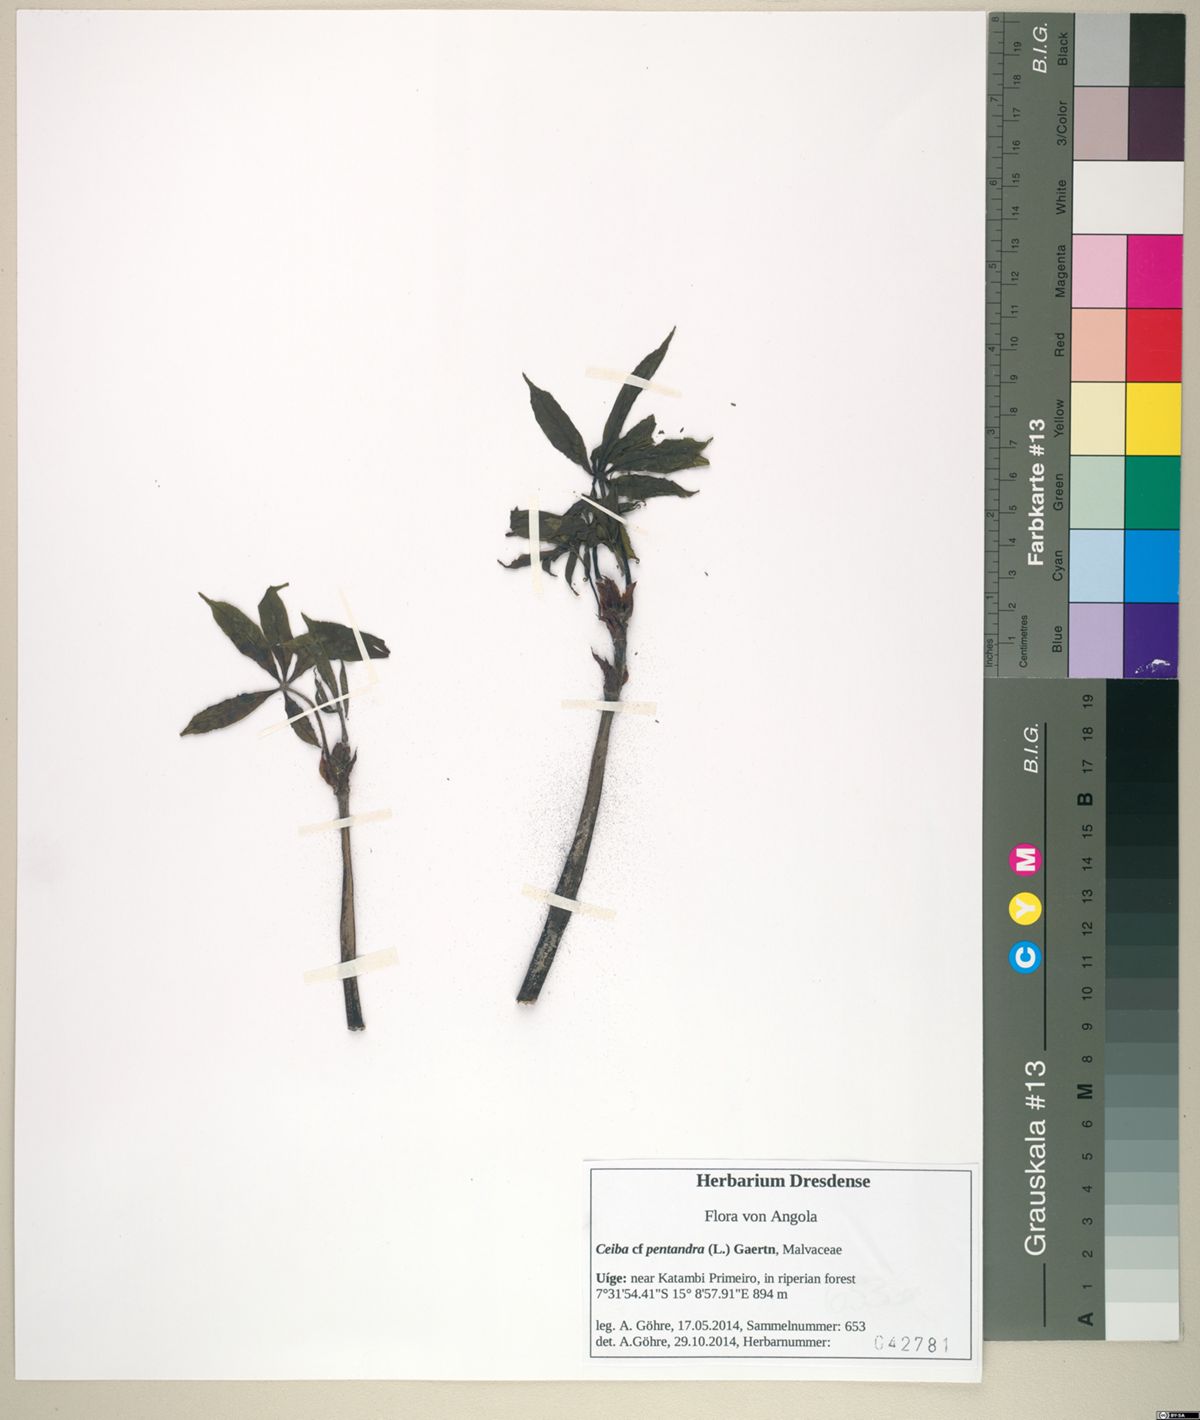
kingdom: Plantae
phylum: Tracheophyta
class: Magnoliopsida
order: Malvales
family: Malvaceae
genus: Ceiba
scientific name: Ceiba pentandra
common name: Kapok
